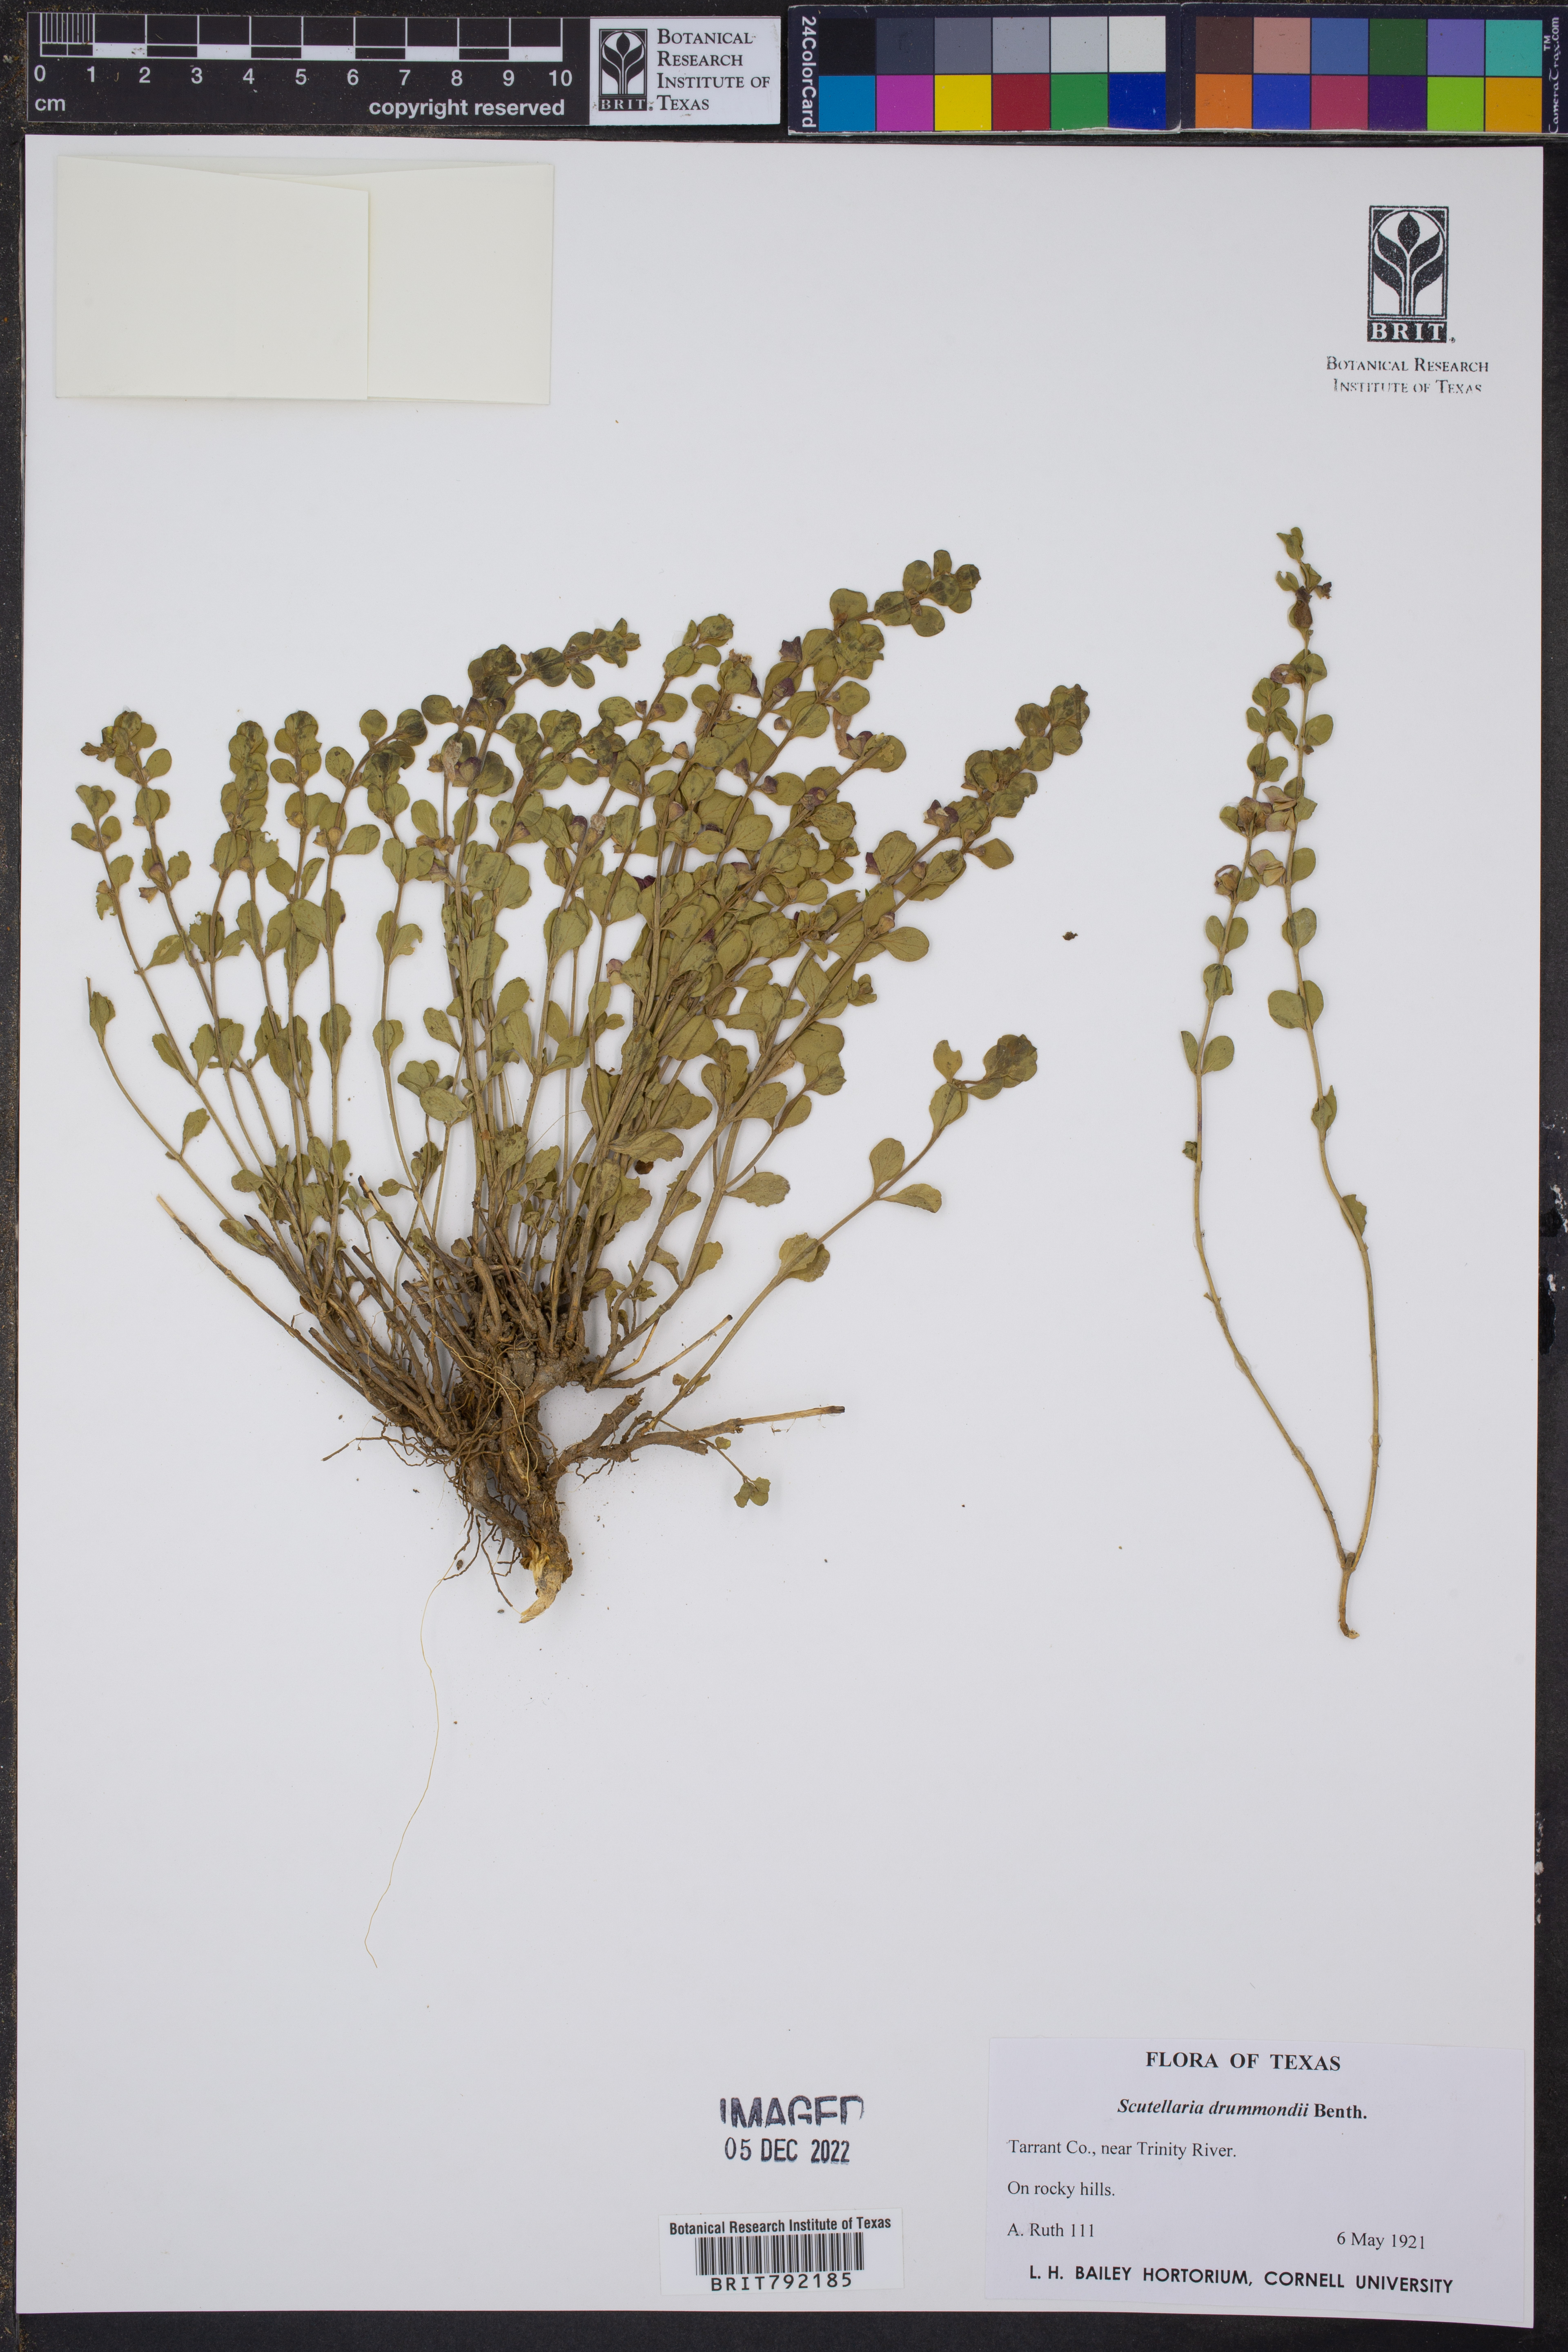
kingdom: Plantae
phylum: Tracheophyta
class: Magnoliopsida
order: Lamiales
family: Lamiaceae
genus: Scutellaria
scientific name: Scutellaria drummondii
